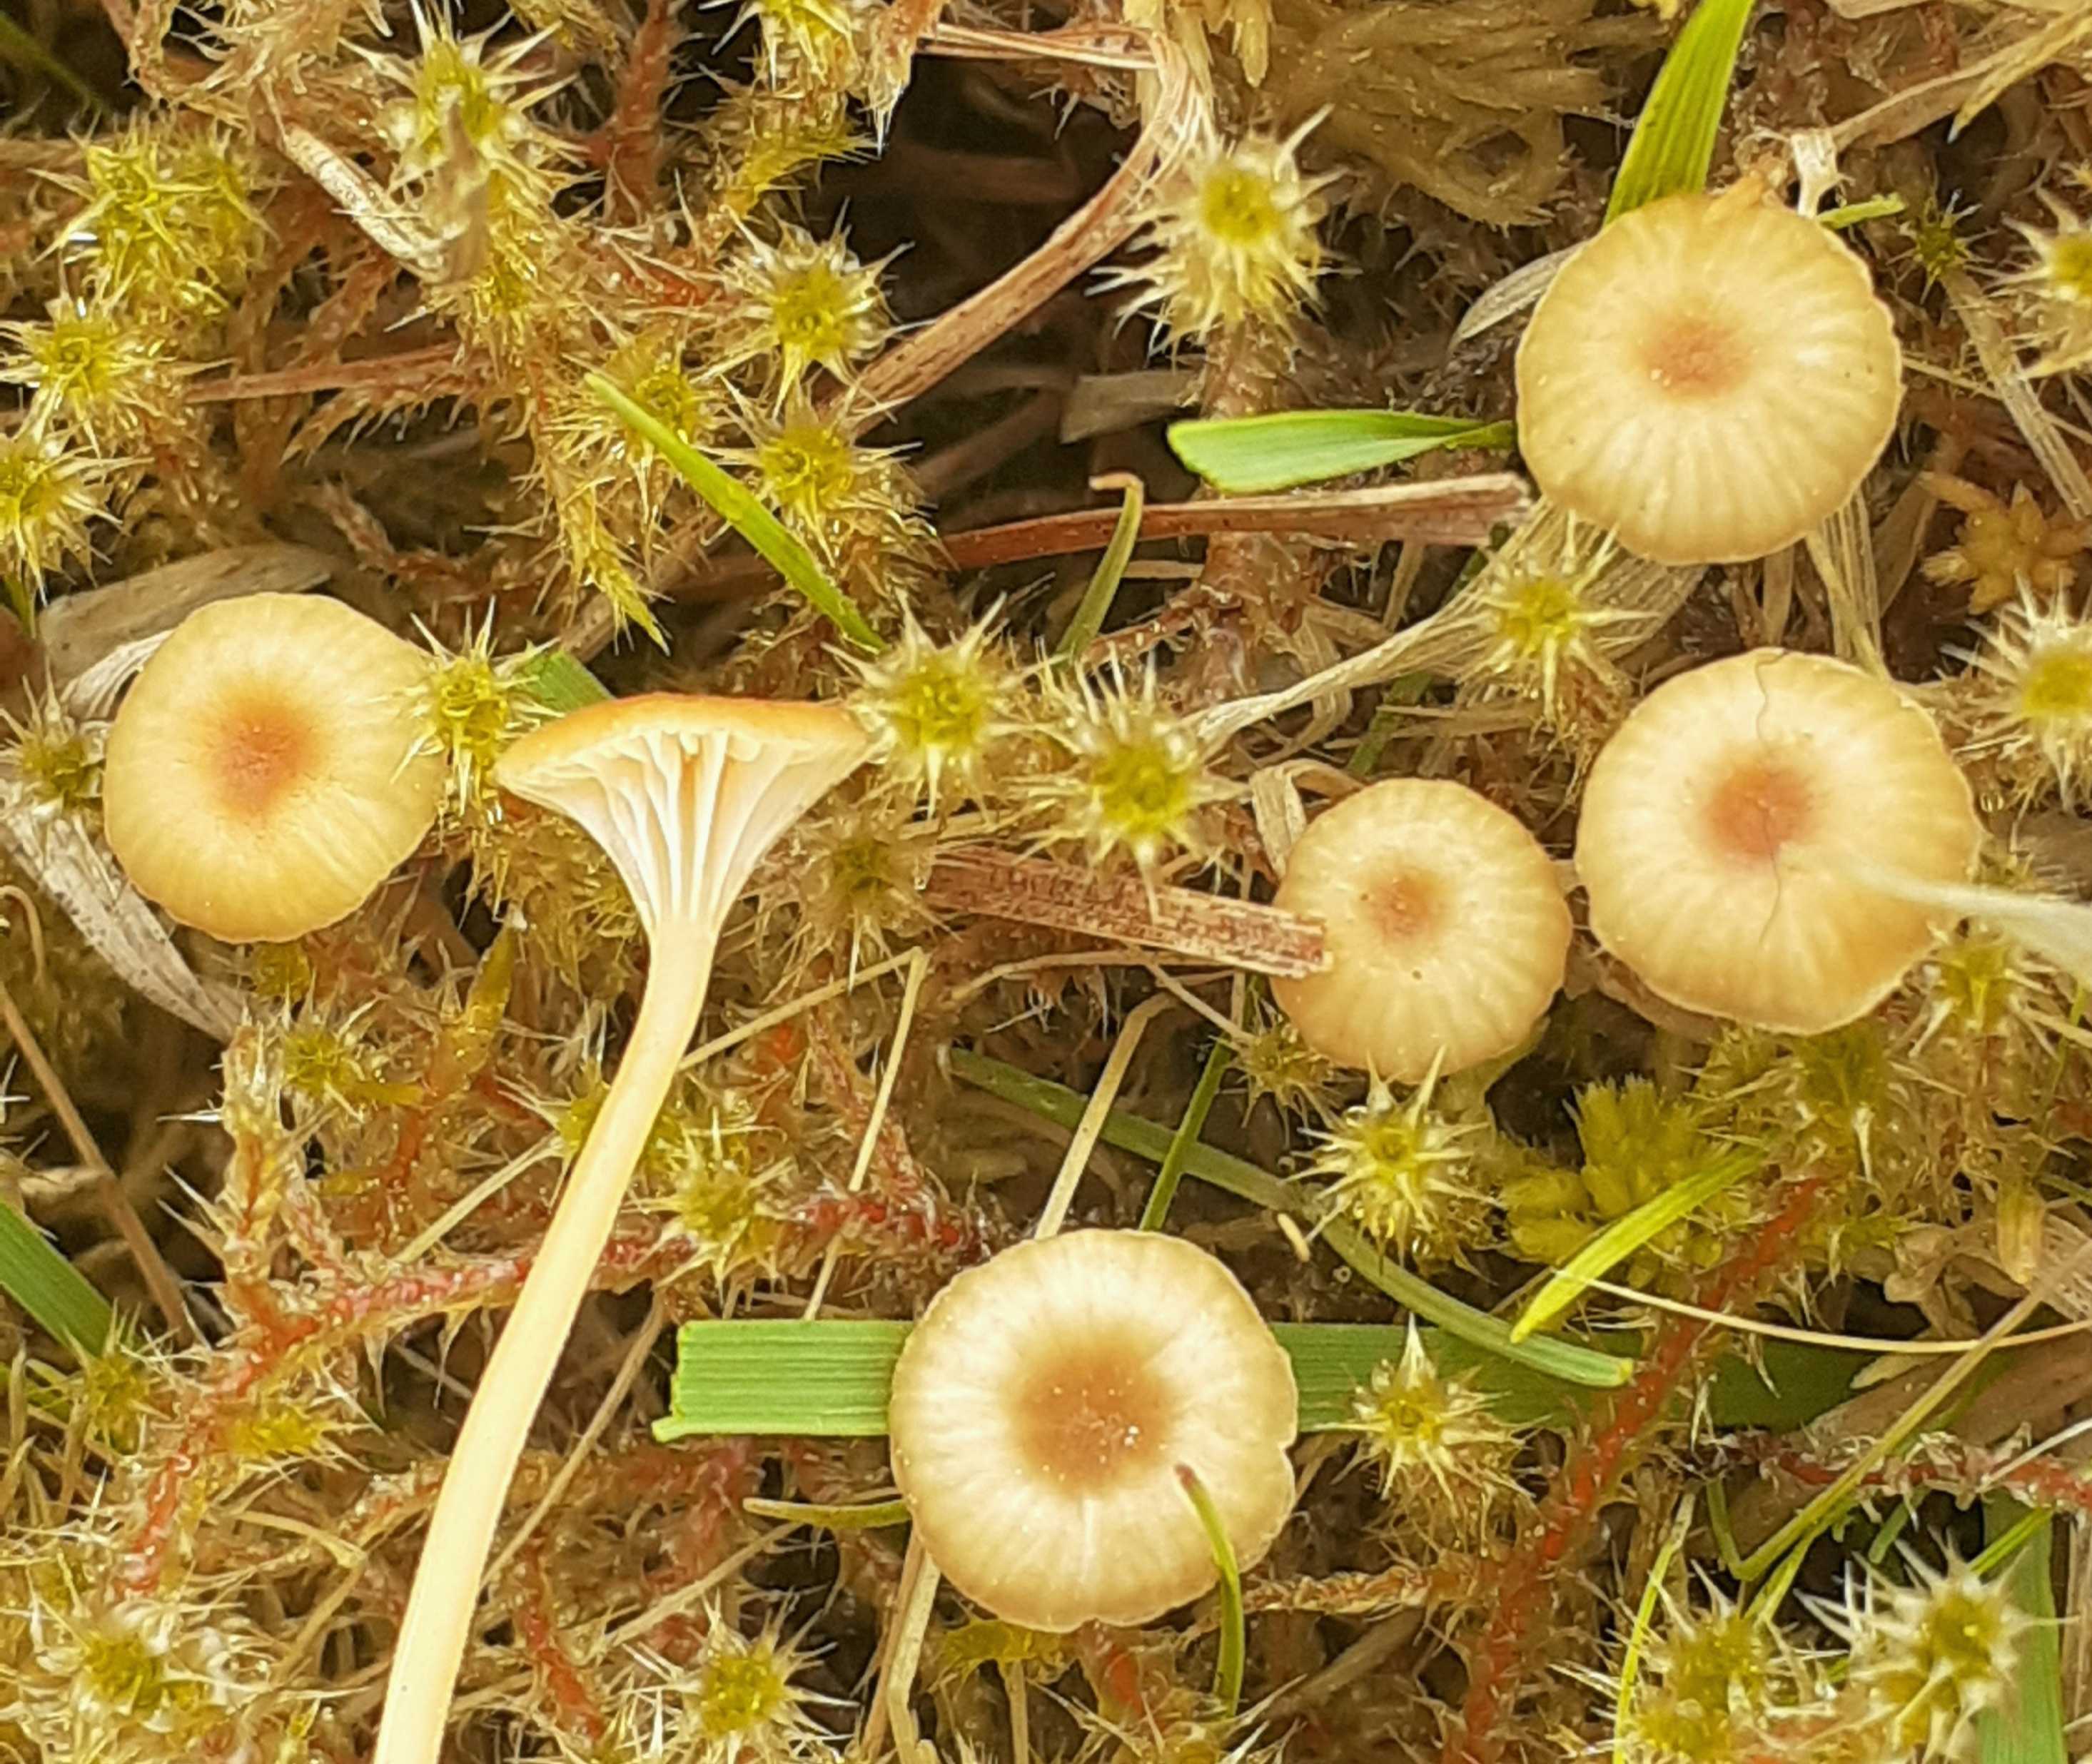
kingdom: Fungi
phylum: Basidiomycota
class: Agaricomycetes
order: Hymenochaetales
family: Rickenellaceae
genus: Rickenella
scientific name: Rickenella fibula
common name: orange mosnavlehat
